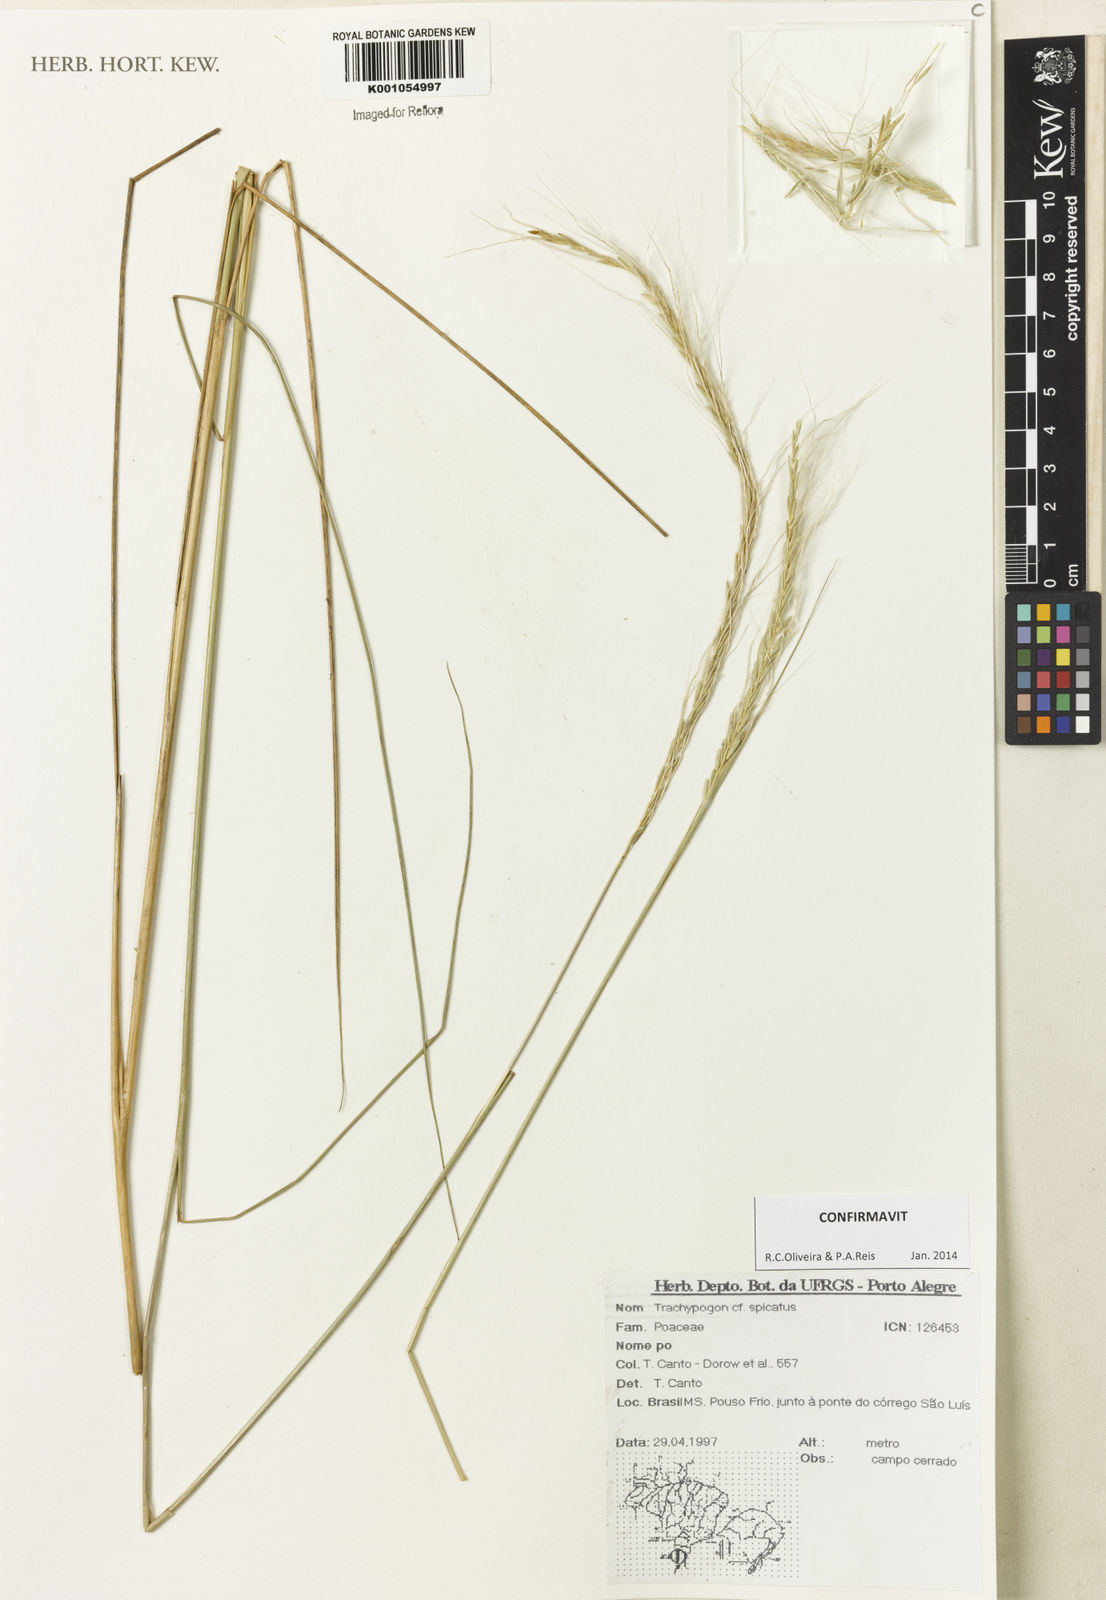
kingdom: Plantae
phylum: Tracheophyta
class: Liliopsida
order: Poales
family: Poaceae
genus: Trachypogon
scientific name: Trachypogon spicatus
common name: Crinkle-awn
